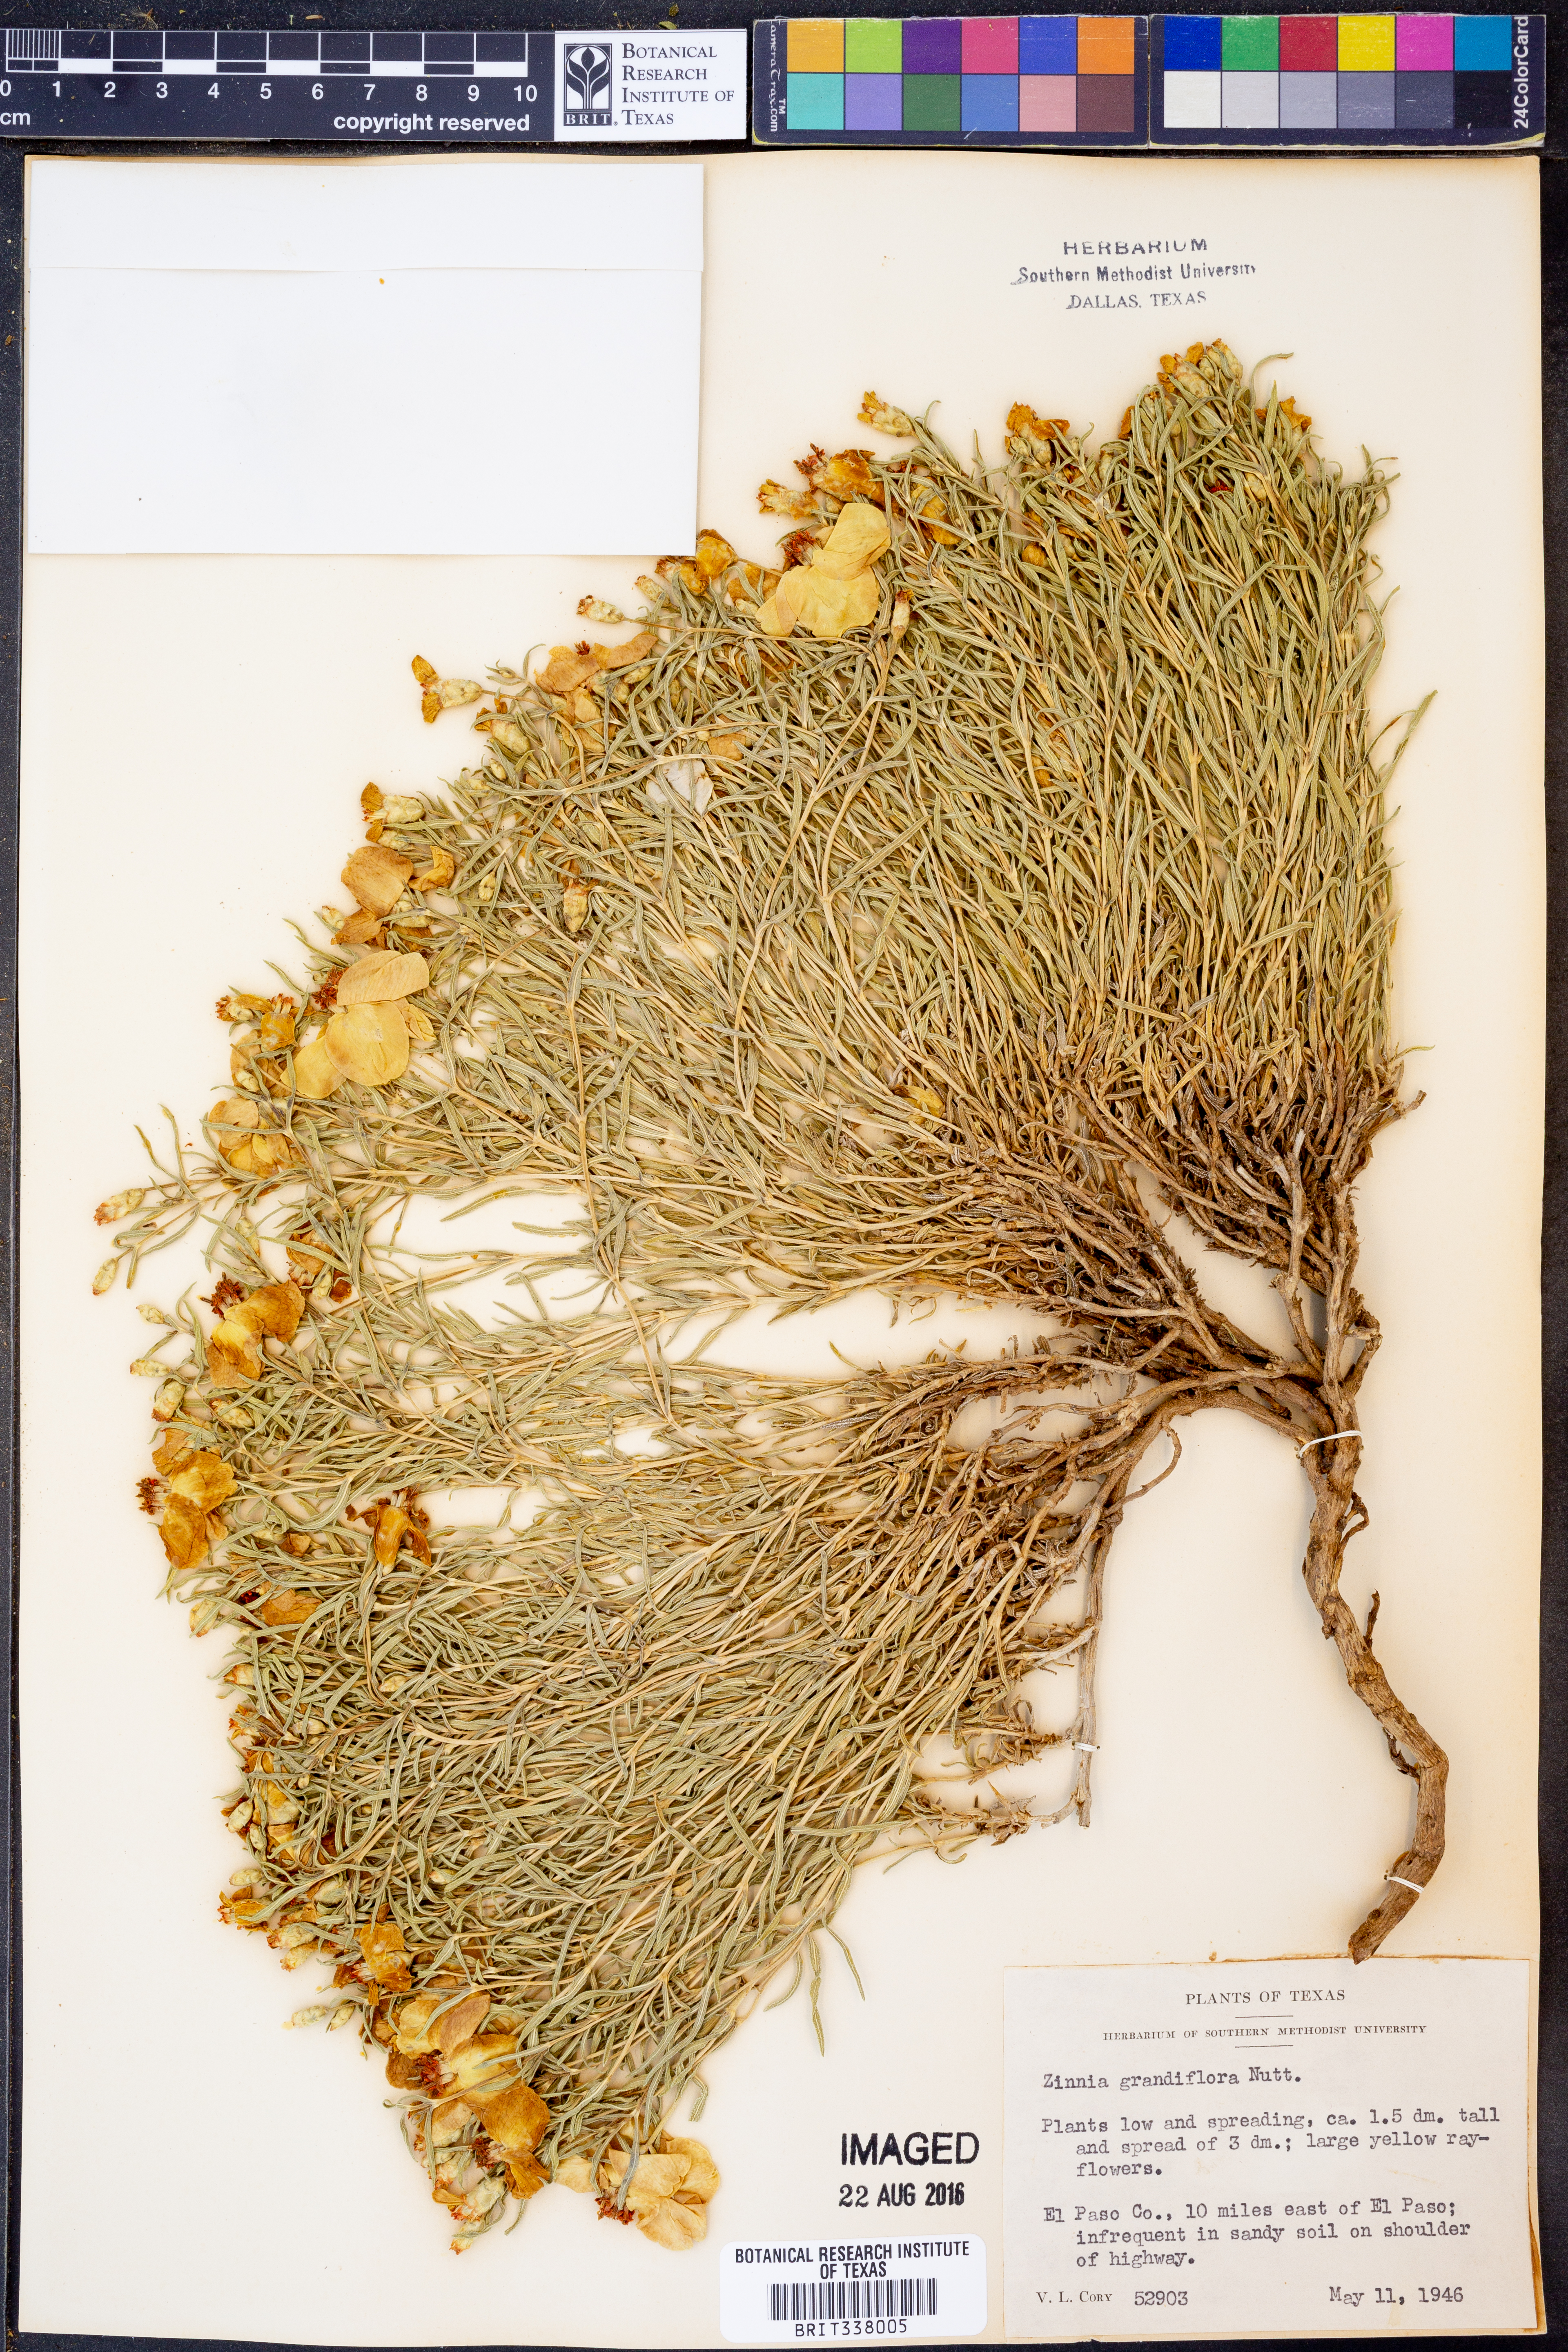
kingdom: Plantae
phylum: Tracheophyta
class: Magnoliopsida
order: Asterales
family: Asteraceae
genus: Zinnia
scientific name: Zinnia grandiflora
